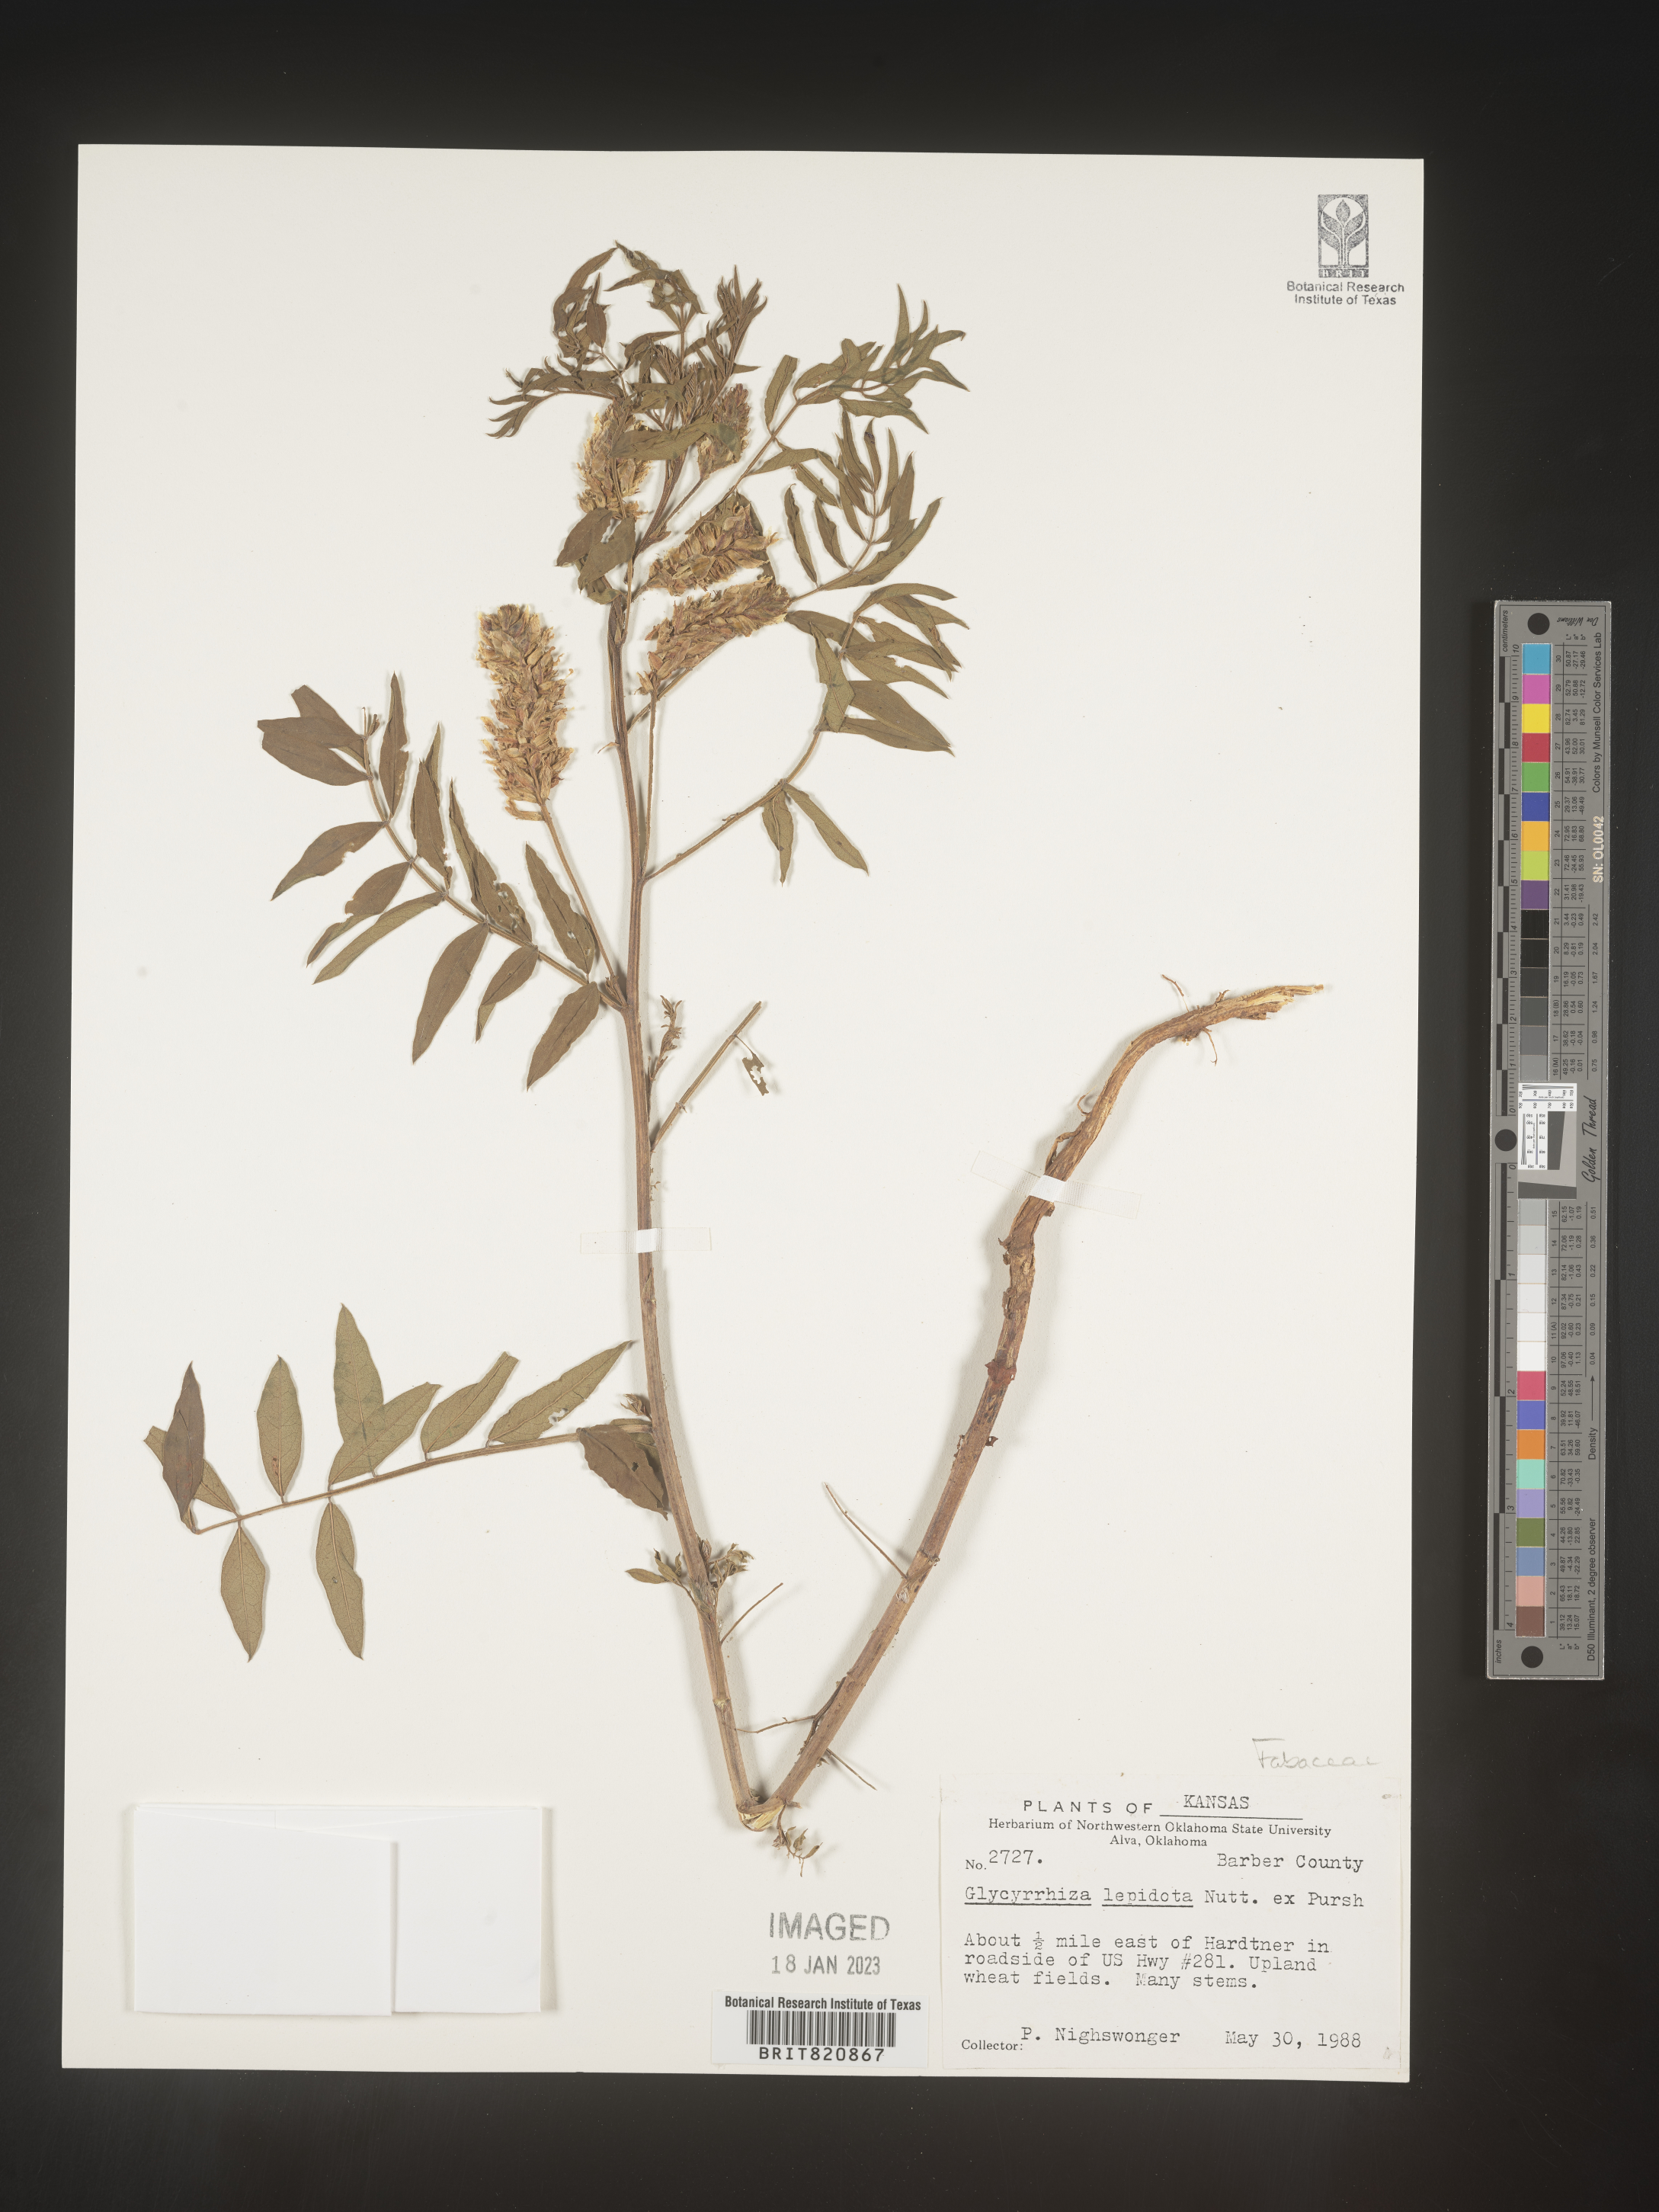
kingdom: Plantae
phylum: Tracheophyta
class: Magnoliopsida
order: Fabales
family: Fabaceae
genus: Glycyrrhiza
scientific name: Glycyrrhiza lepidota
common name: American liquorice
